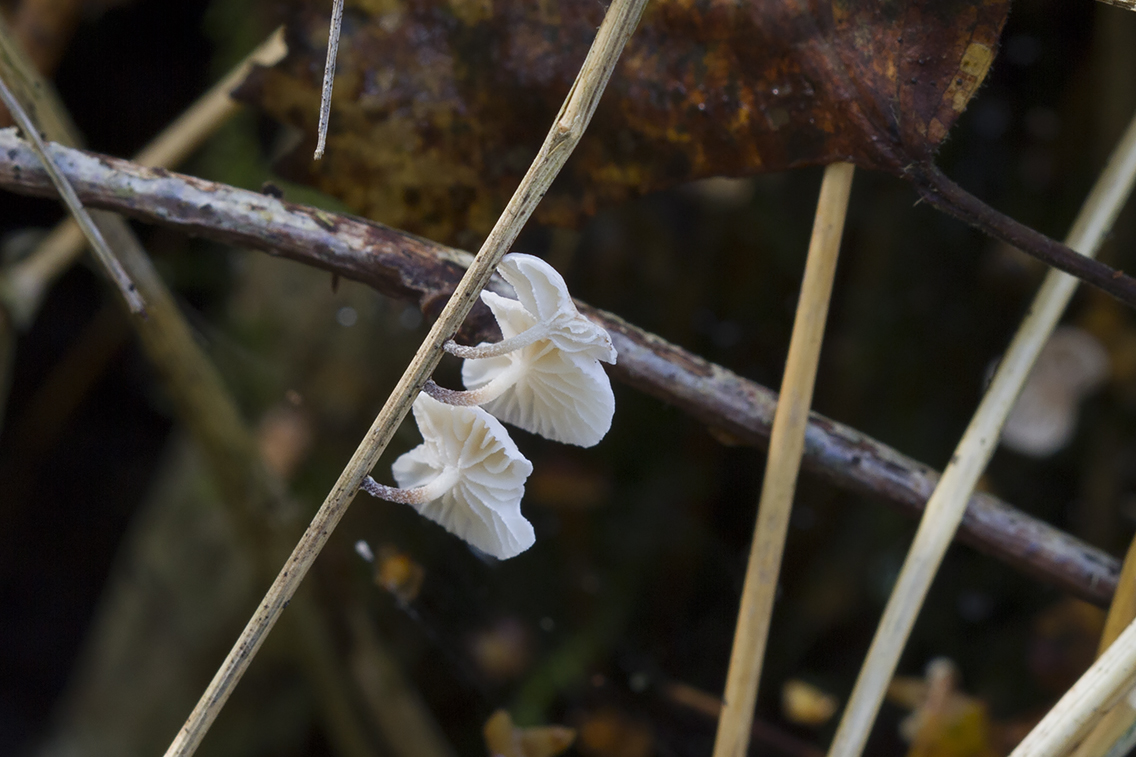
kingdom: Fungi
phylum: Basidiomycota
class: Agaricomycetes
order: Agaricales
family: Omphalotaceae
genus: Collybiopsis
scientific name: Collybiopsis ramealis
